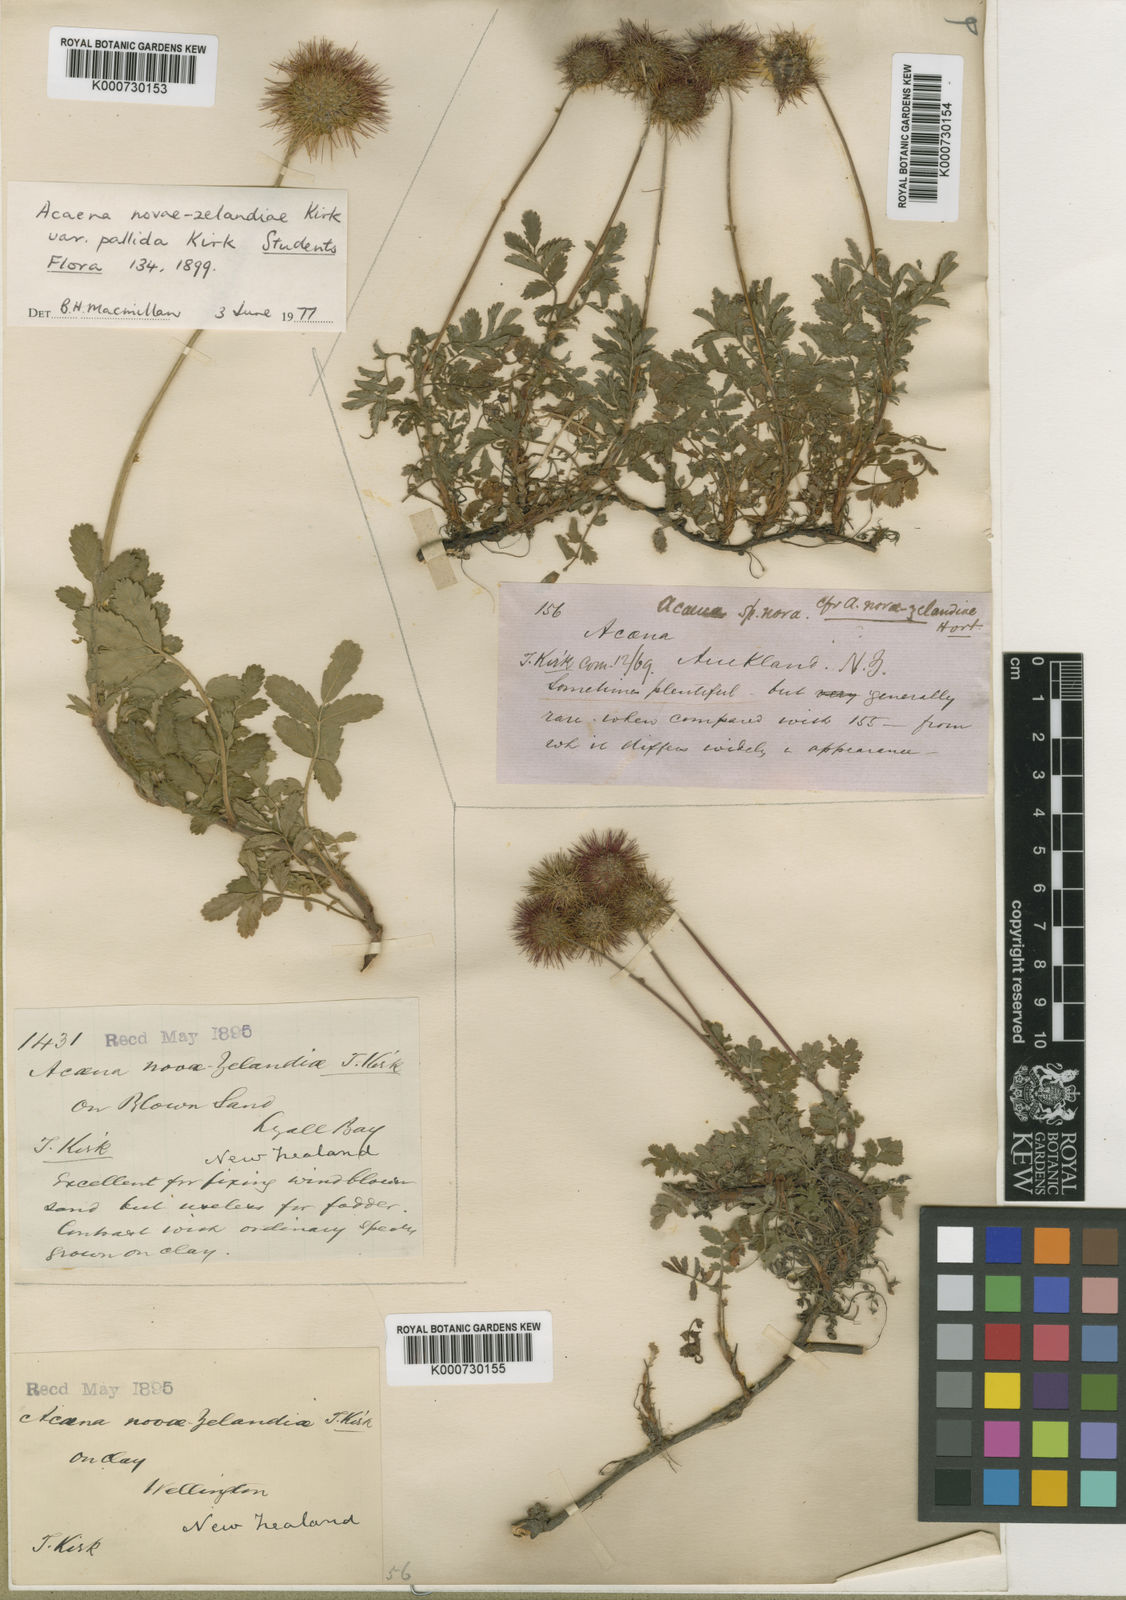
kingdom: Plantae
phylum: Tracheophyta
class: Magnoliopsida
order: Rosales
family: Rosaceae
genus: Acaena
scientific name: Acaena novae-zelandiae
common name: Pirri-pirri-bur
